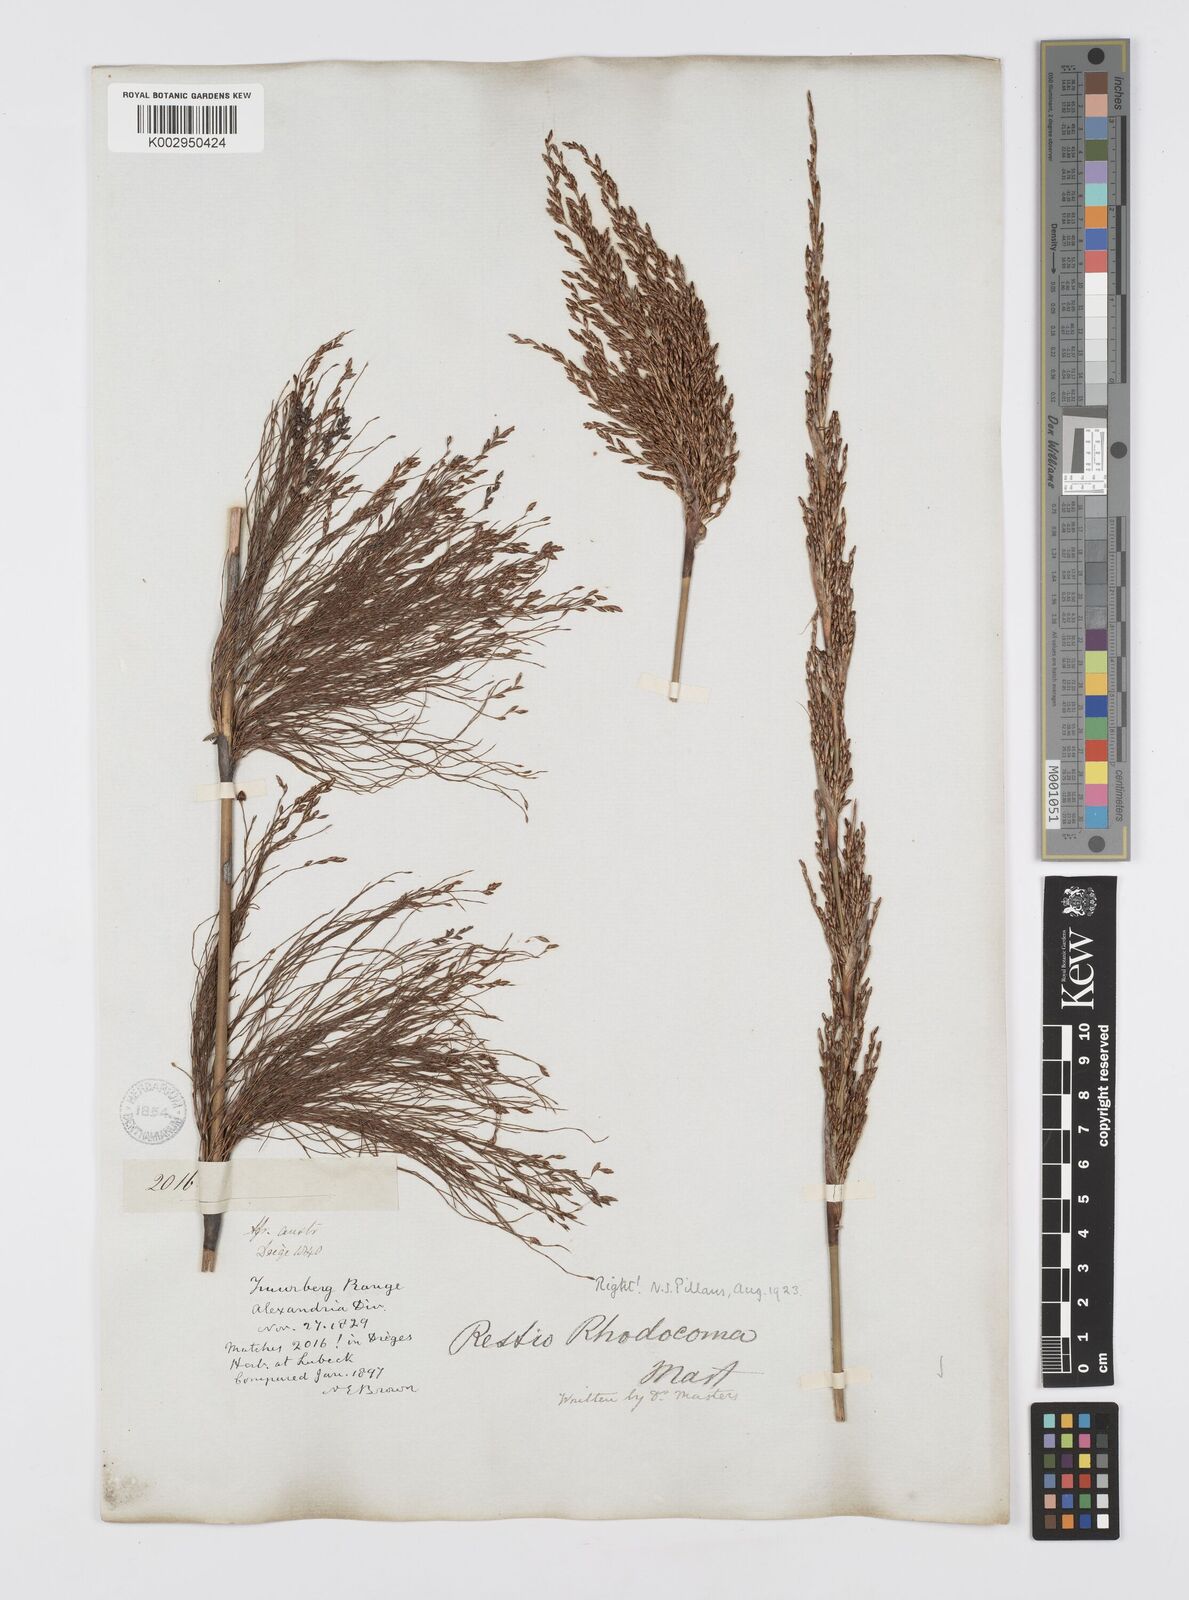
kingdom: Plantae
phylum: Tracheophyta
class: Liliopsida
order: Poales
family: Restionaceae
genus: Rhodocoma
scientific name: Rhodocoma capensis
